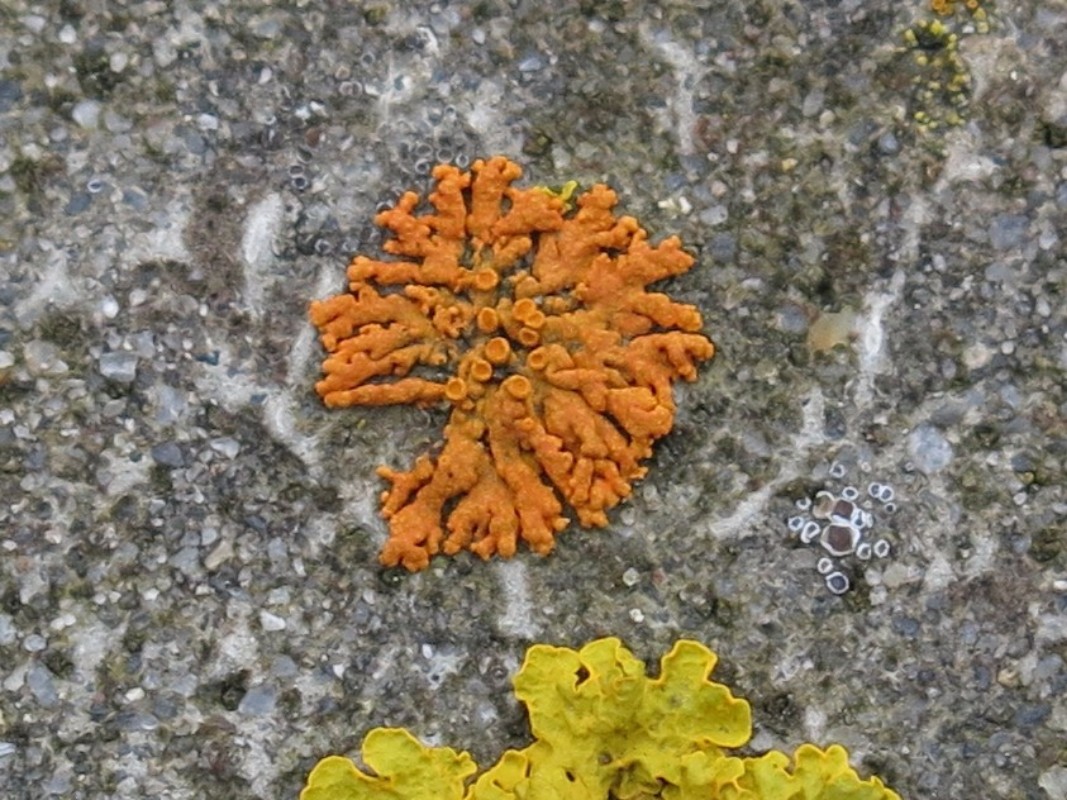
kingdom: Fungi
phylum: Ascomycota
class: Lecanoromycetes
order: Teloschistales
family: Teloschistaceae
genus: Xanthoria
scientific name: Xanthoria elegans
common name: fjeld-væggelav
